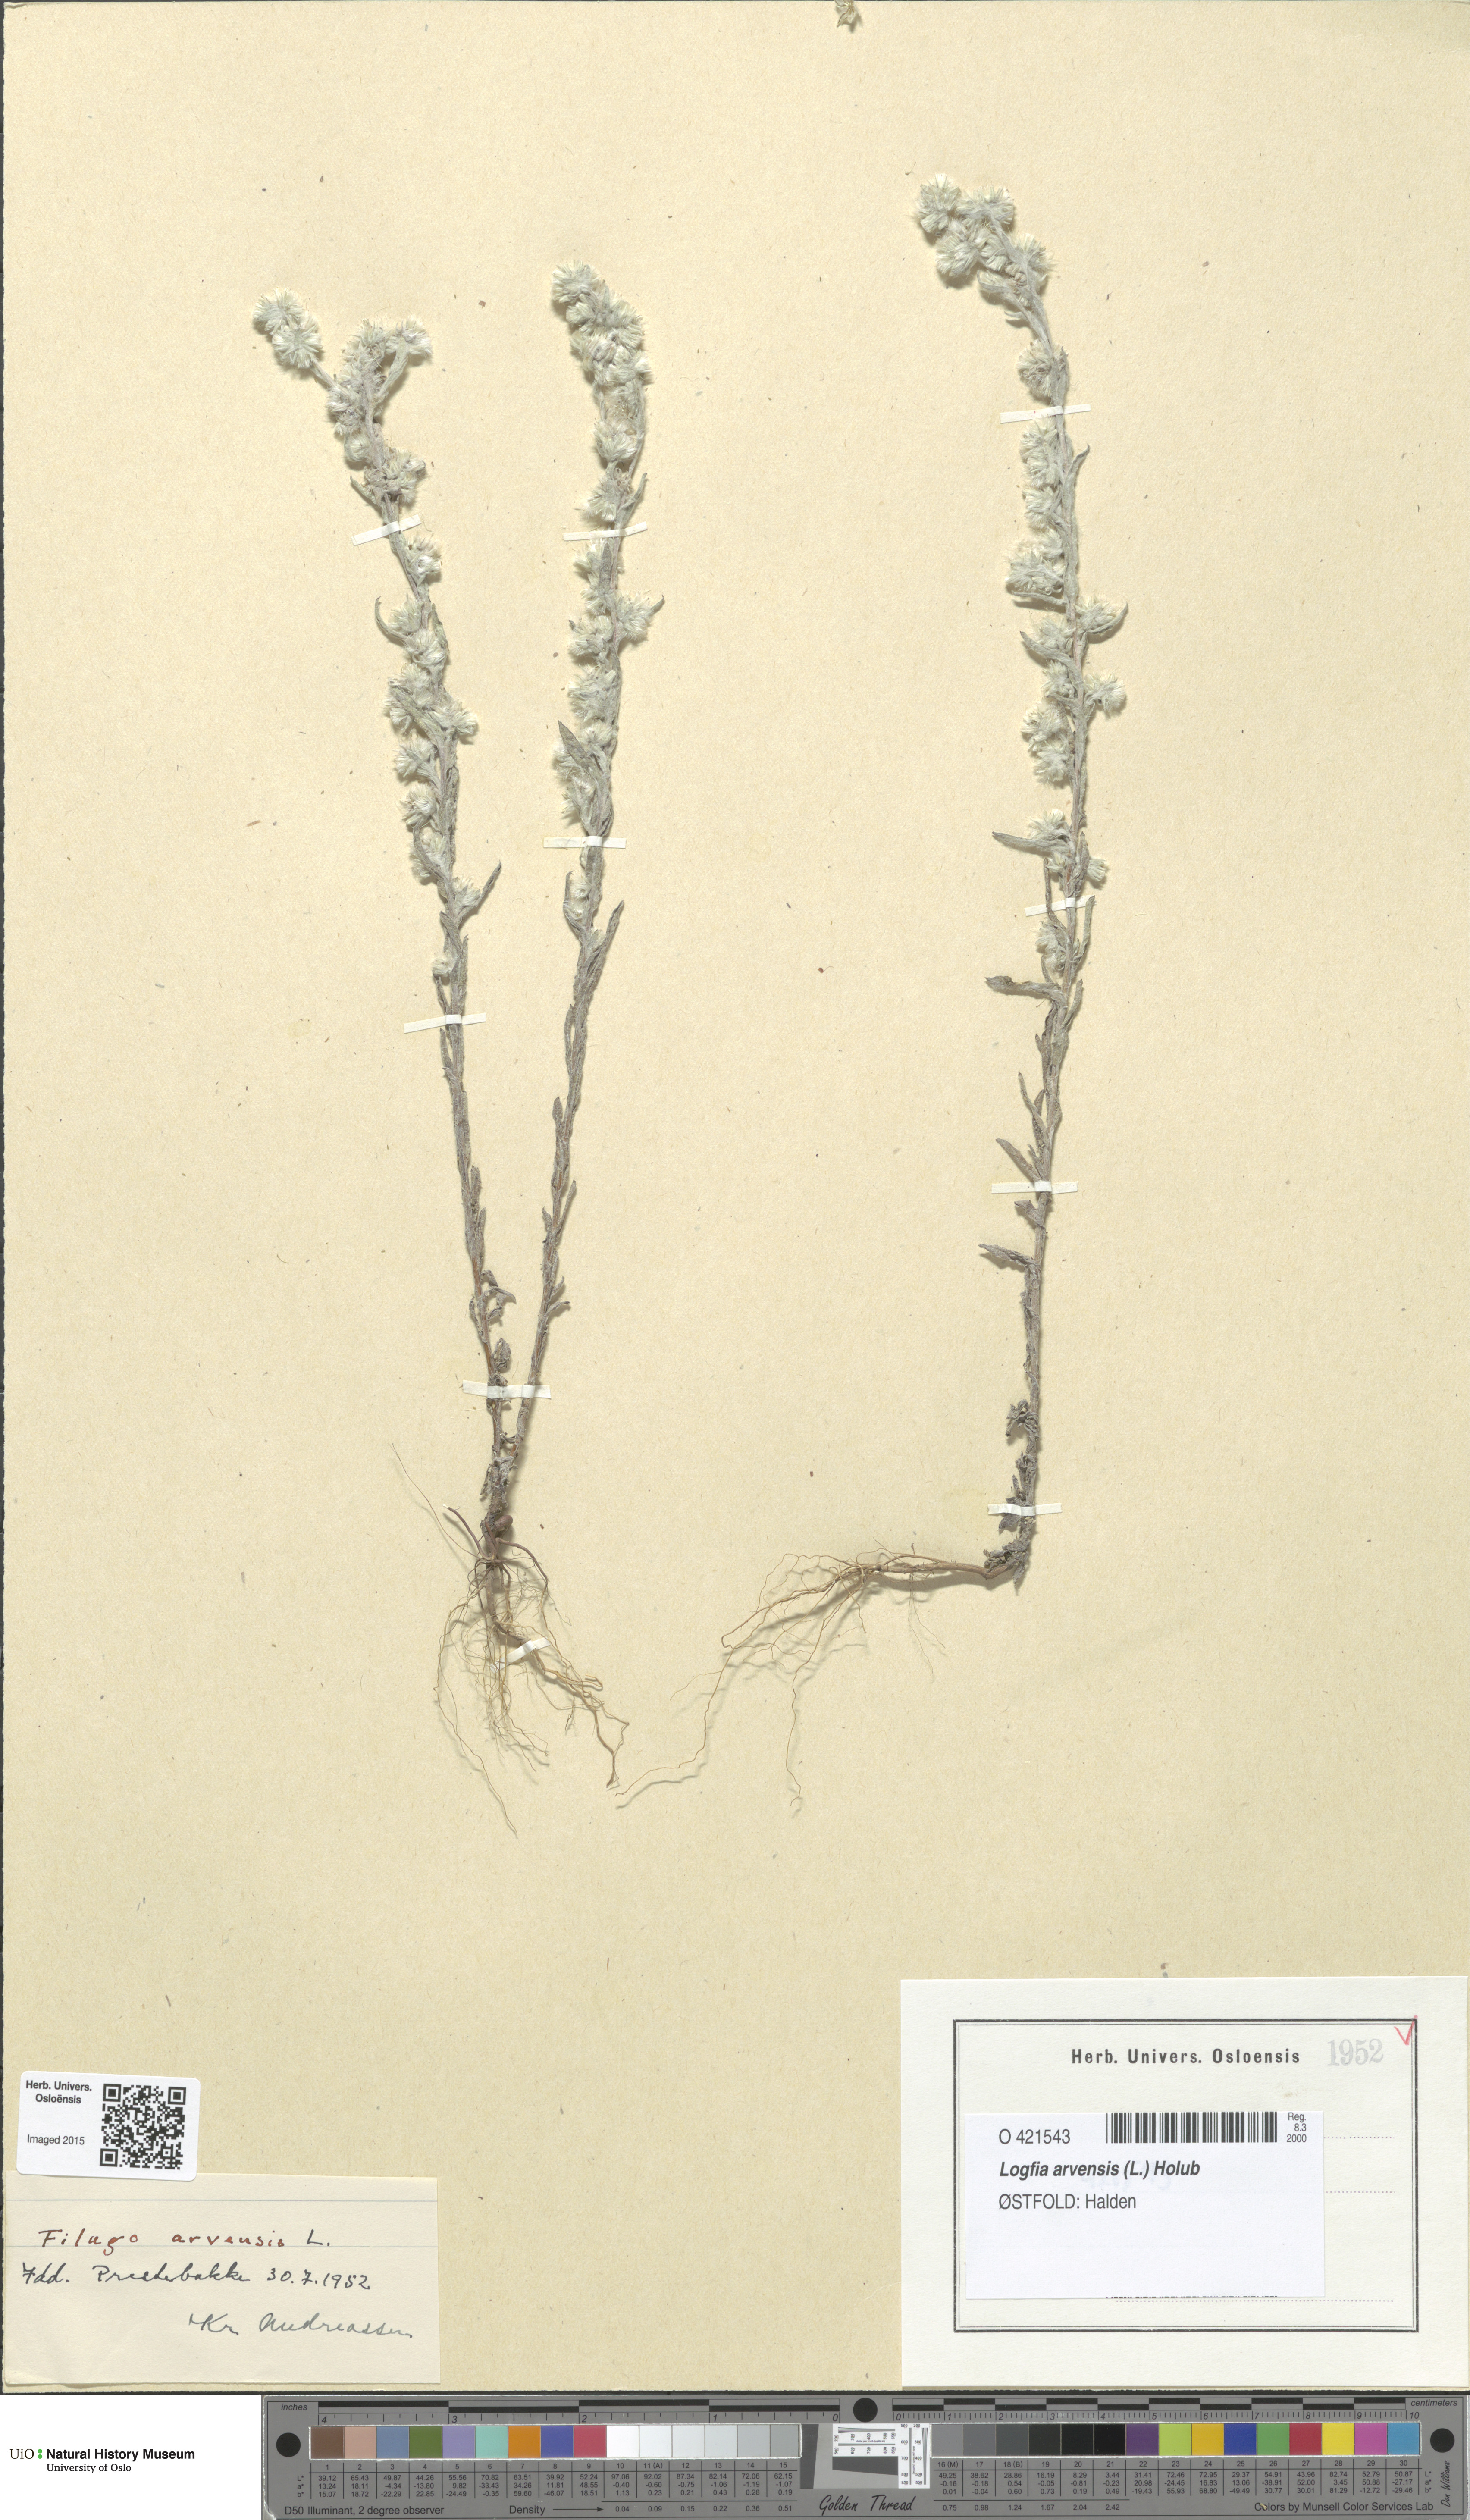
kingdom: Plantae
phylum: Tracheophyta
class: Magnoliopsida
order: Asterales
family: Asteraceae
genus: Filago
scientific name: Filago arvensis
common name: Field cudweed
